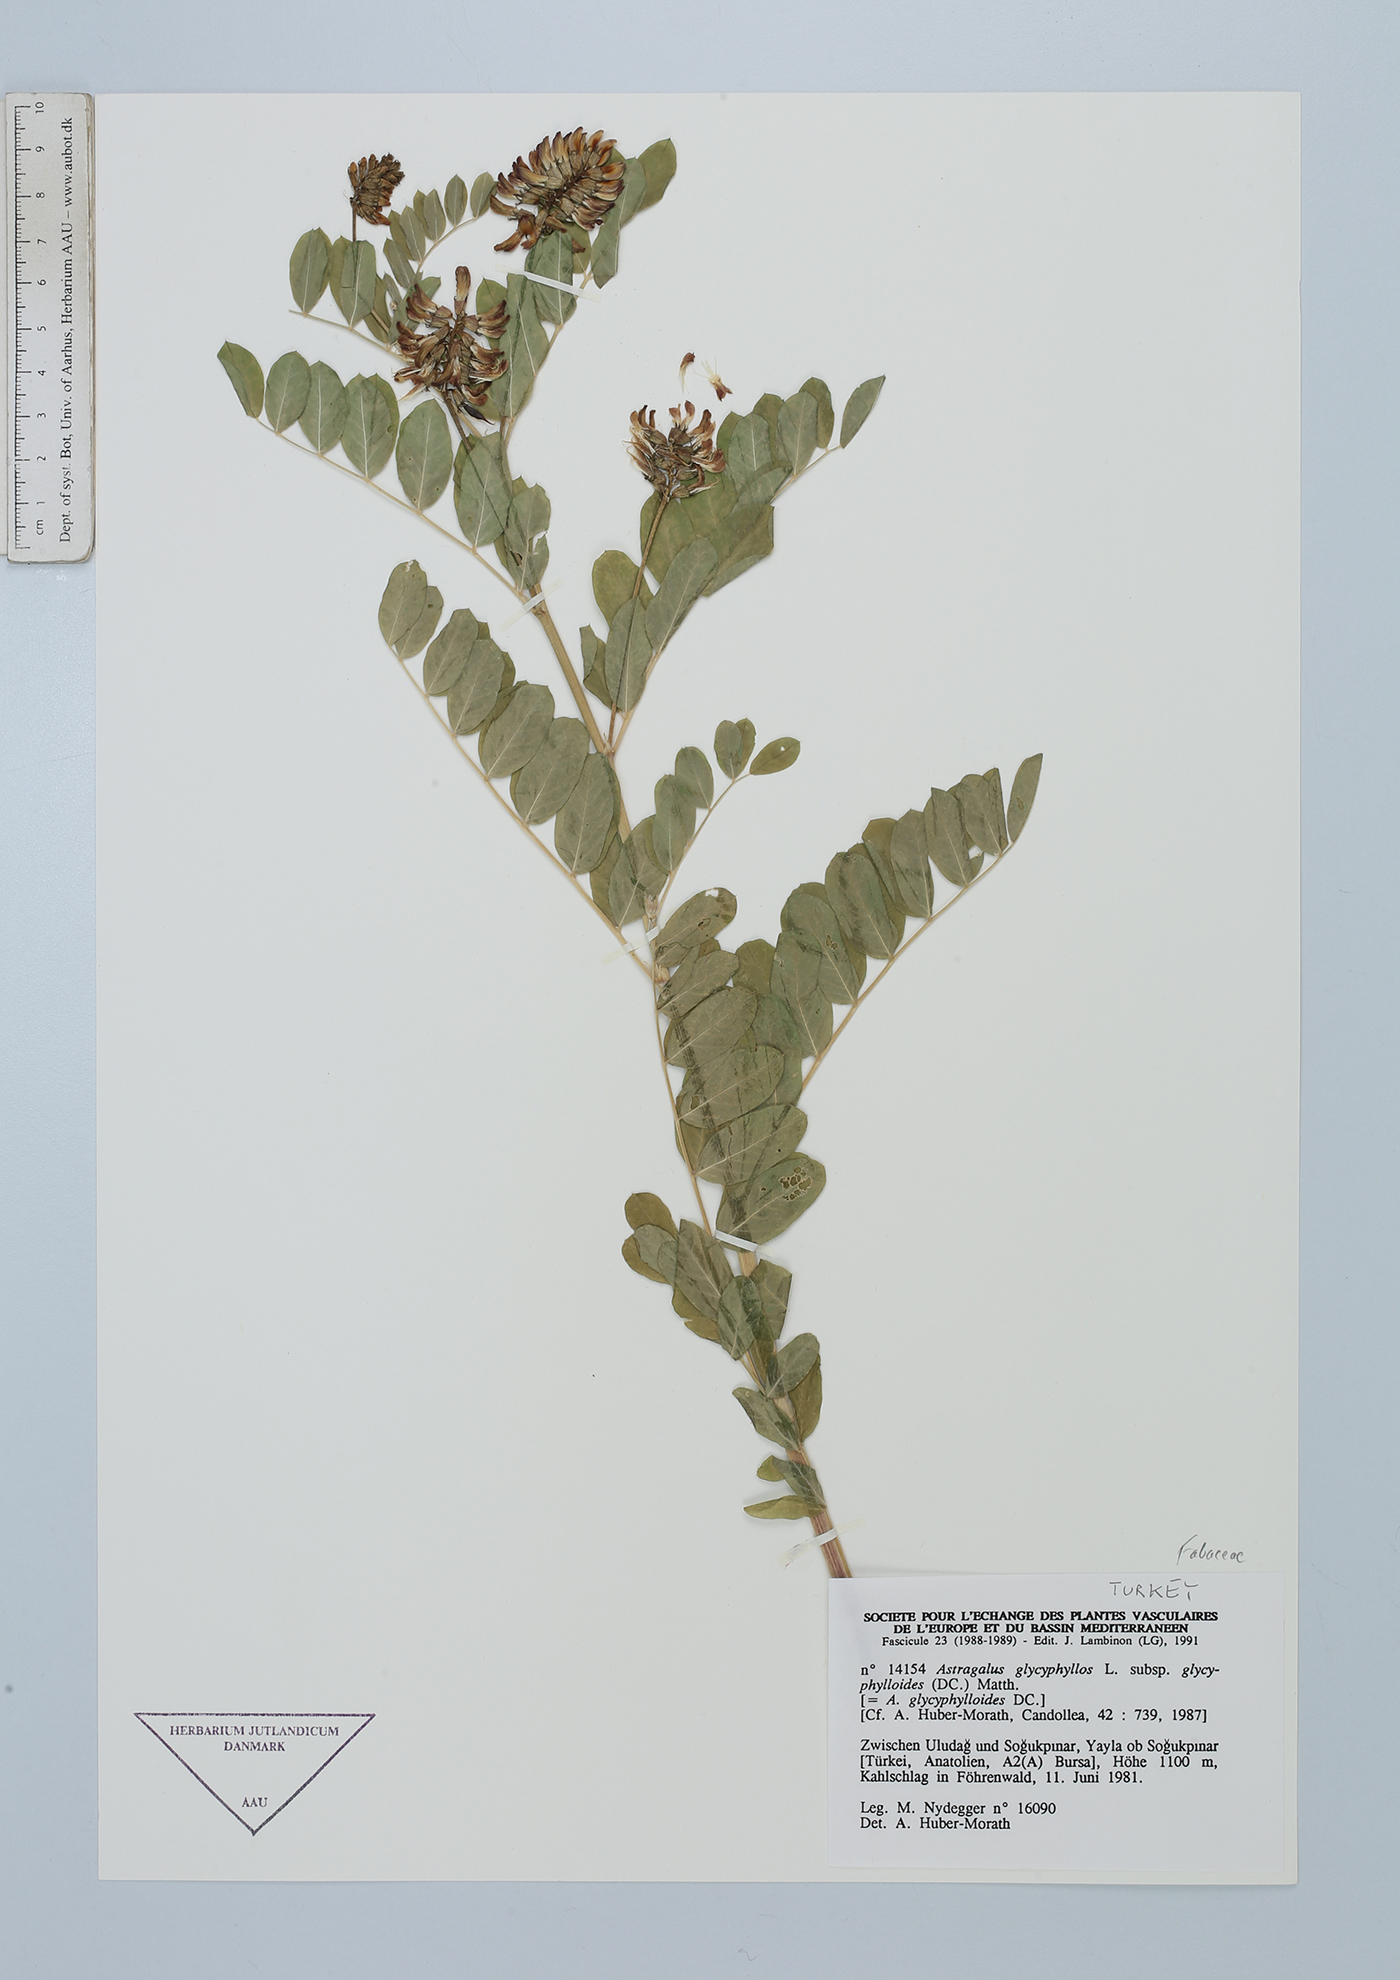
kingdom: Plantae
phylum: Tracheophyta
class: Magnoliopsida
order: Fabales
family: Fabaceae
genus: Astragalus
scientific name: Astragalus glycyphylloides
